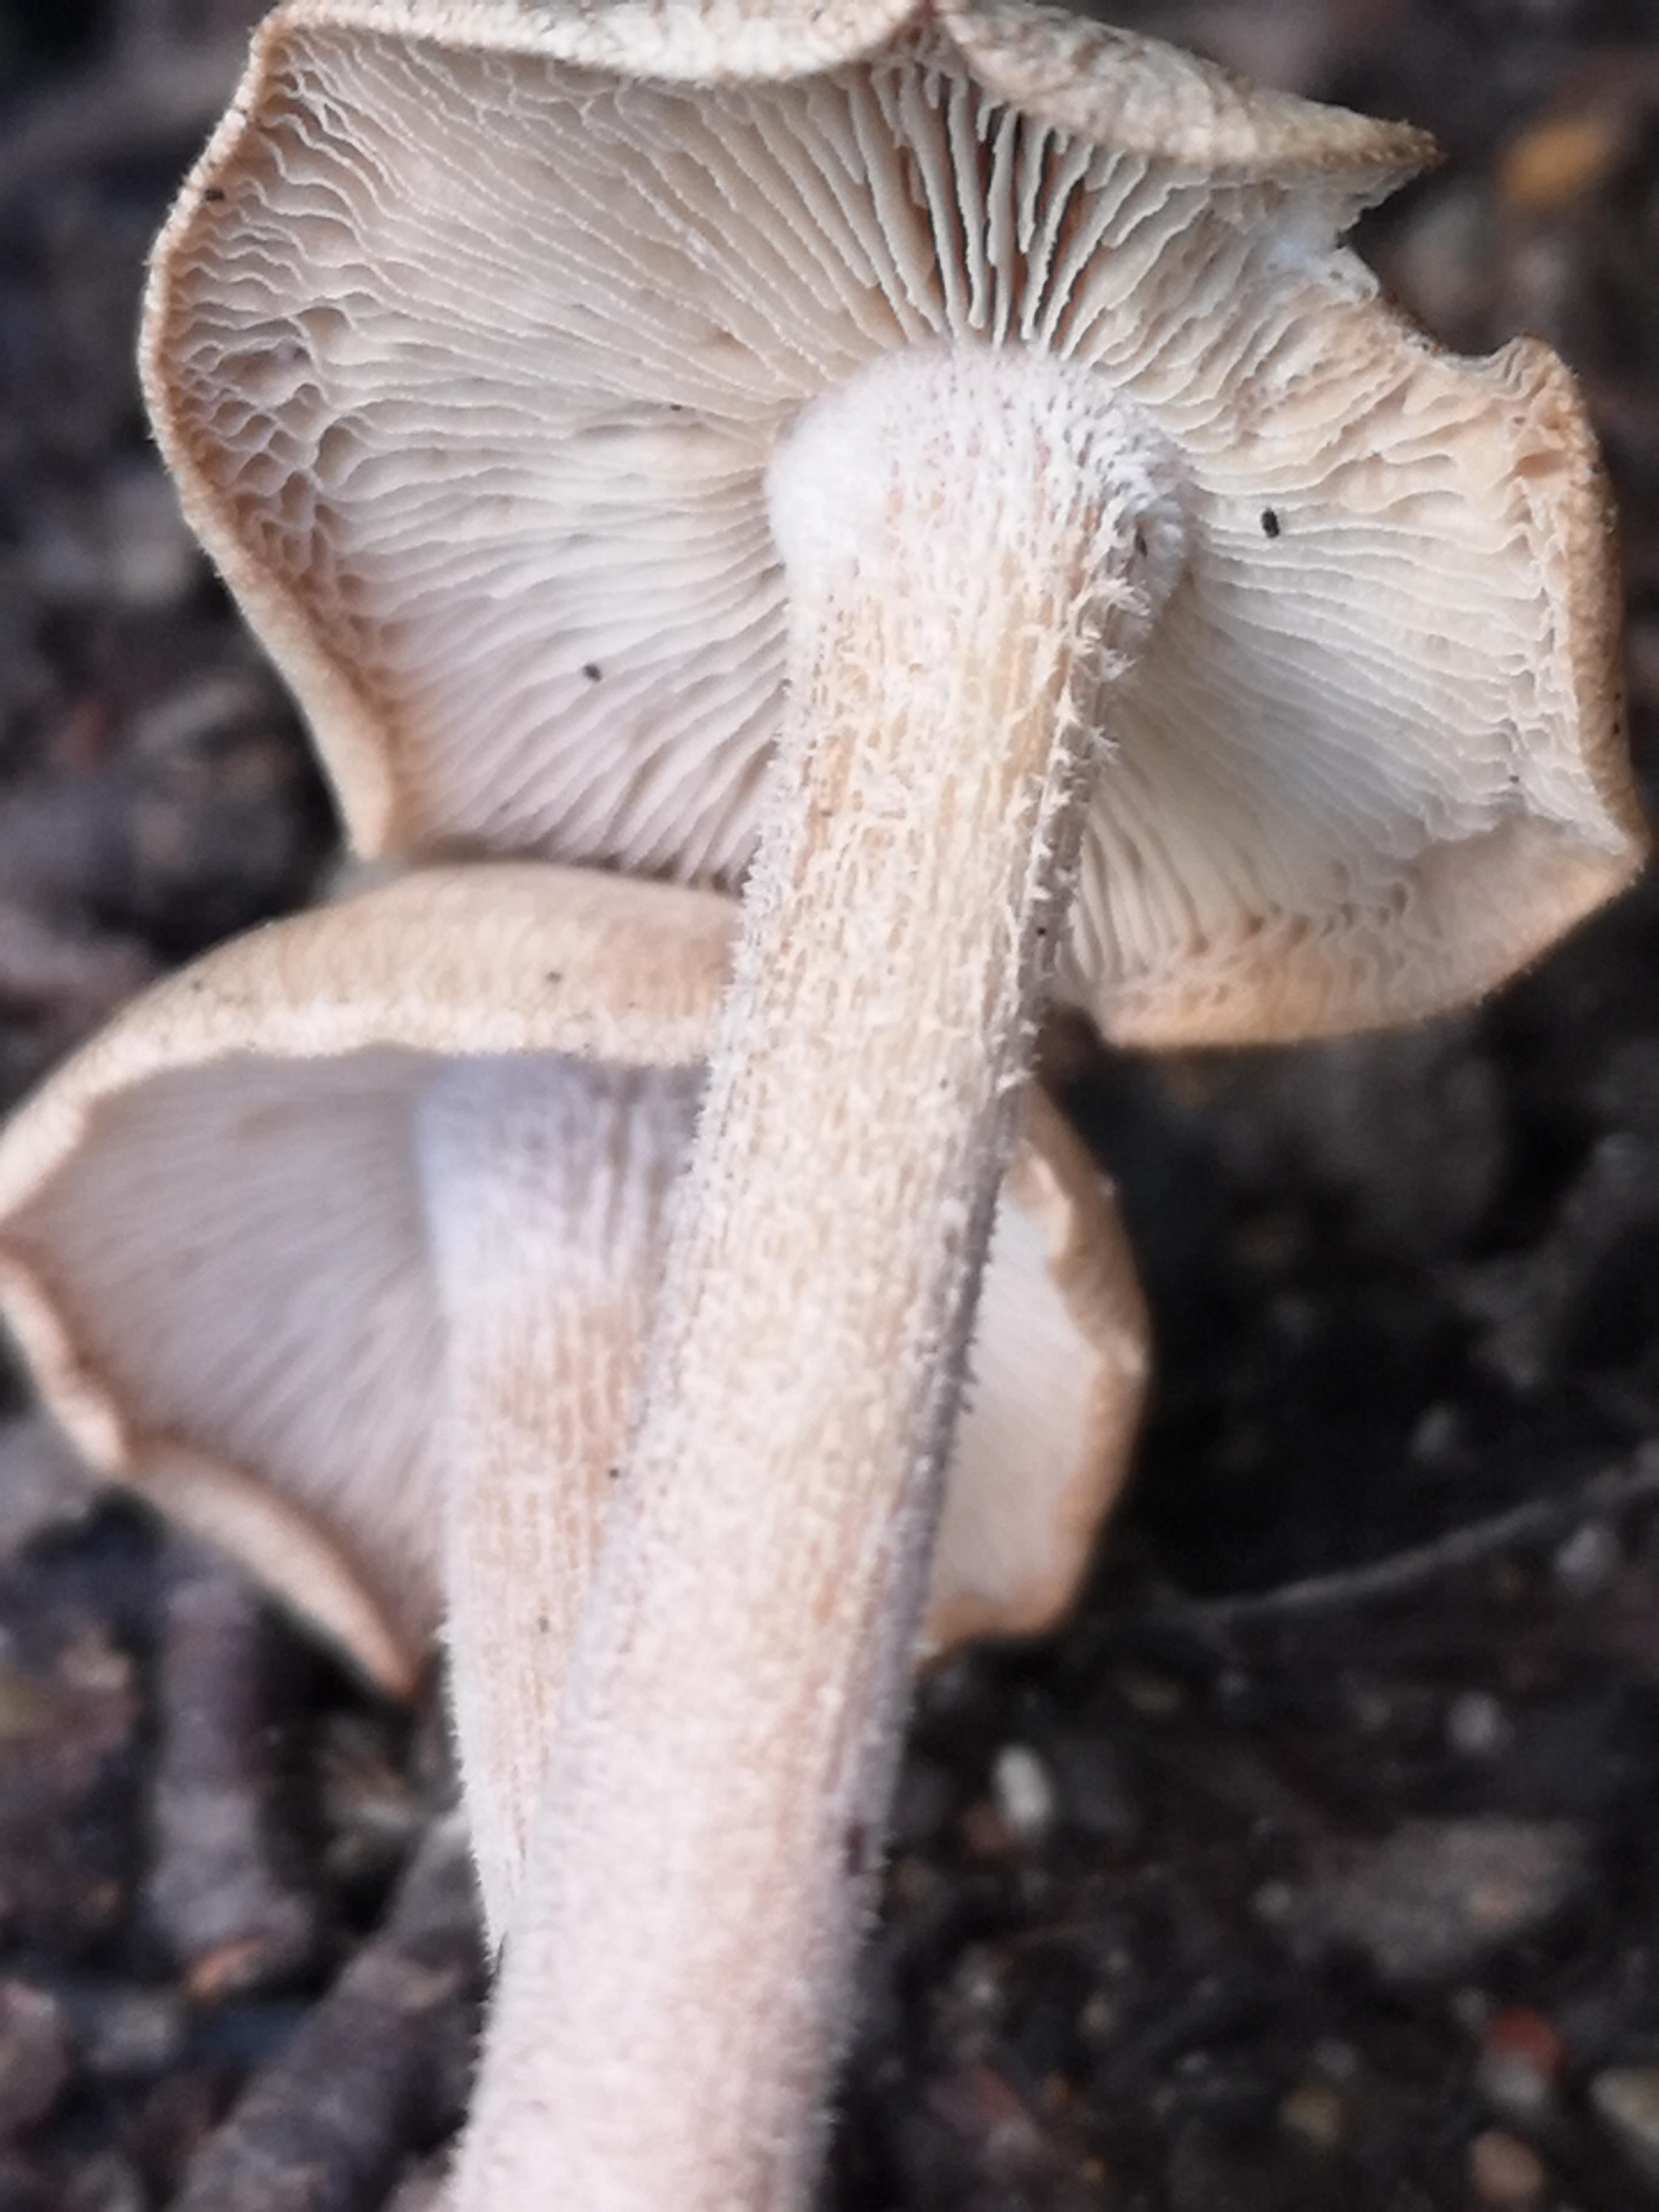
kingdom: Fungi
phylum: Basidiomycota
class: Agaricomycetes
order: Agaricales
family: Omphalotaceae
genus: Collybiopsis
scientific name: Collybiopsis confluens
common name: knippe-fladhat
